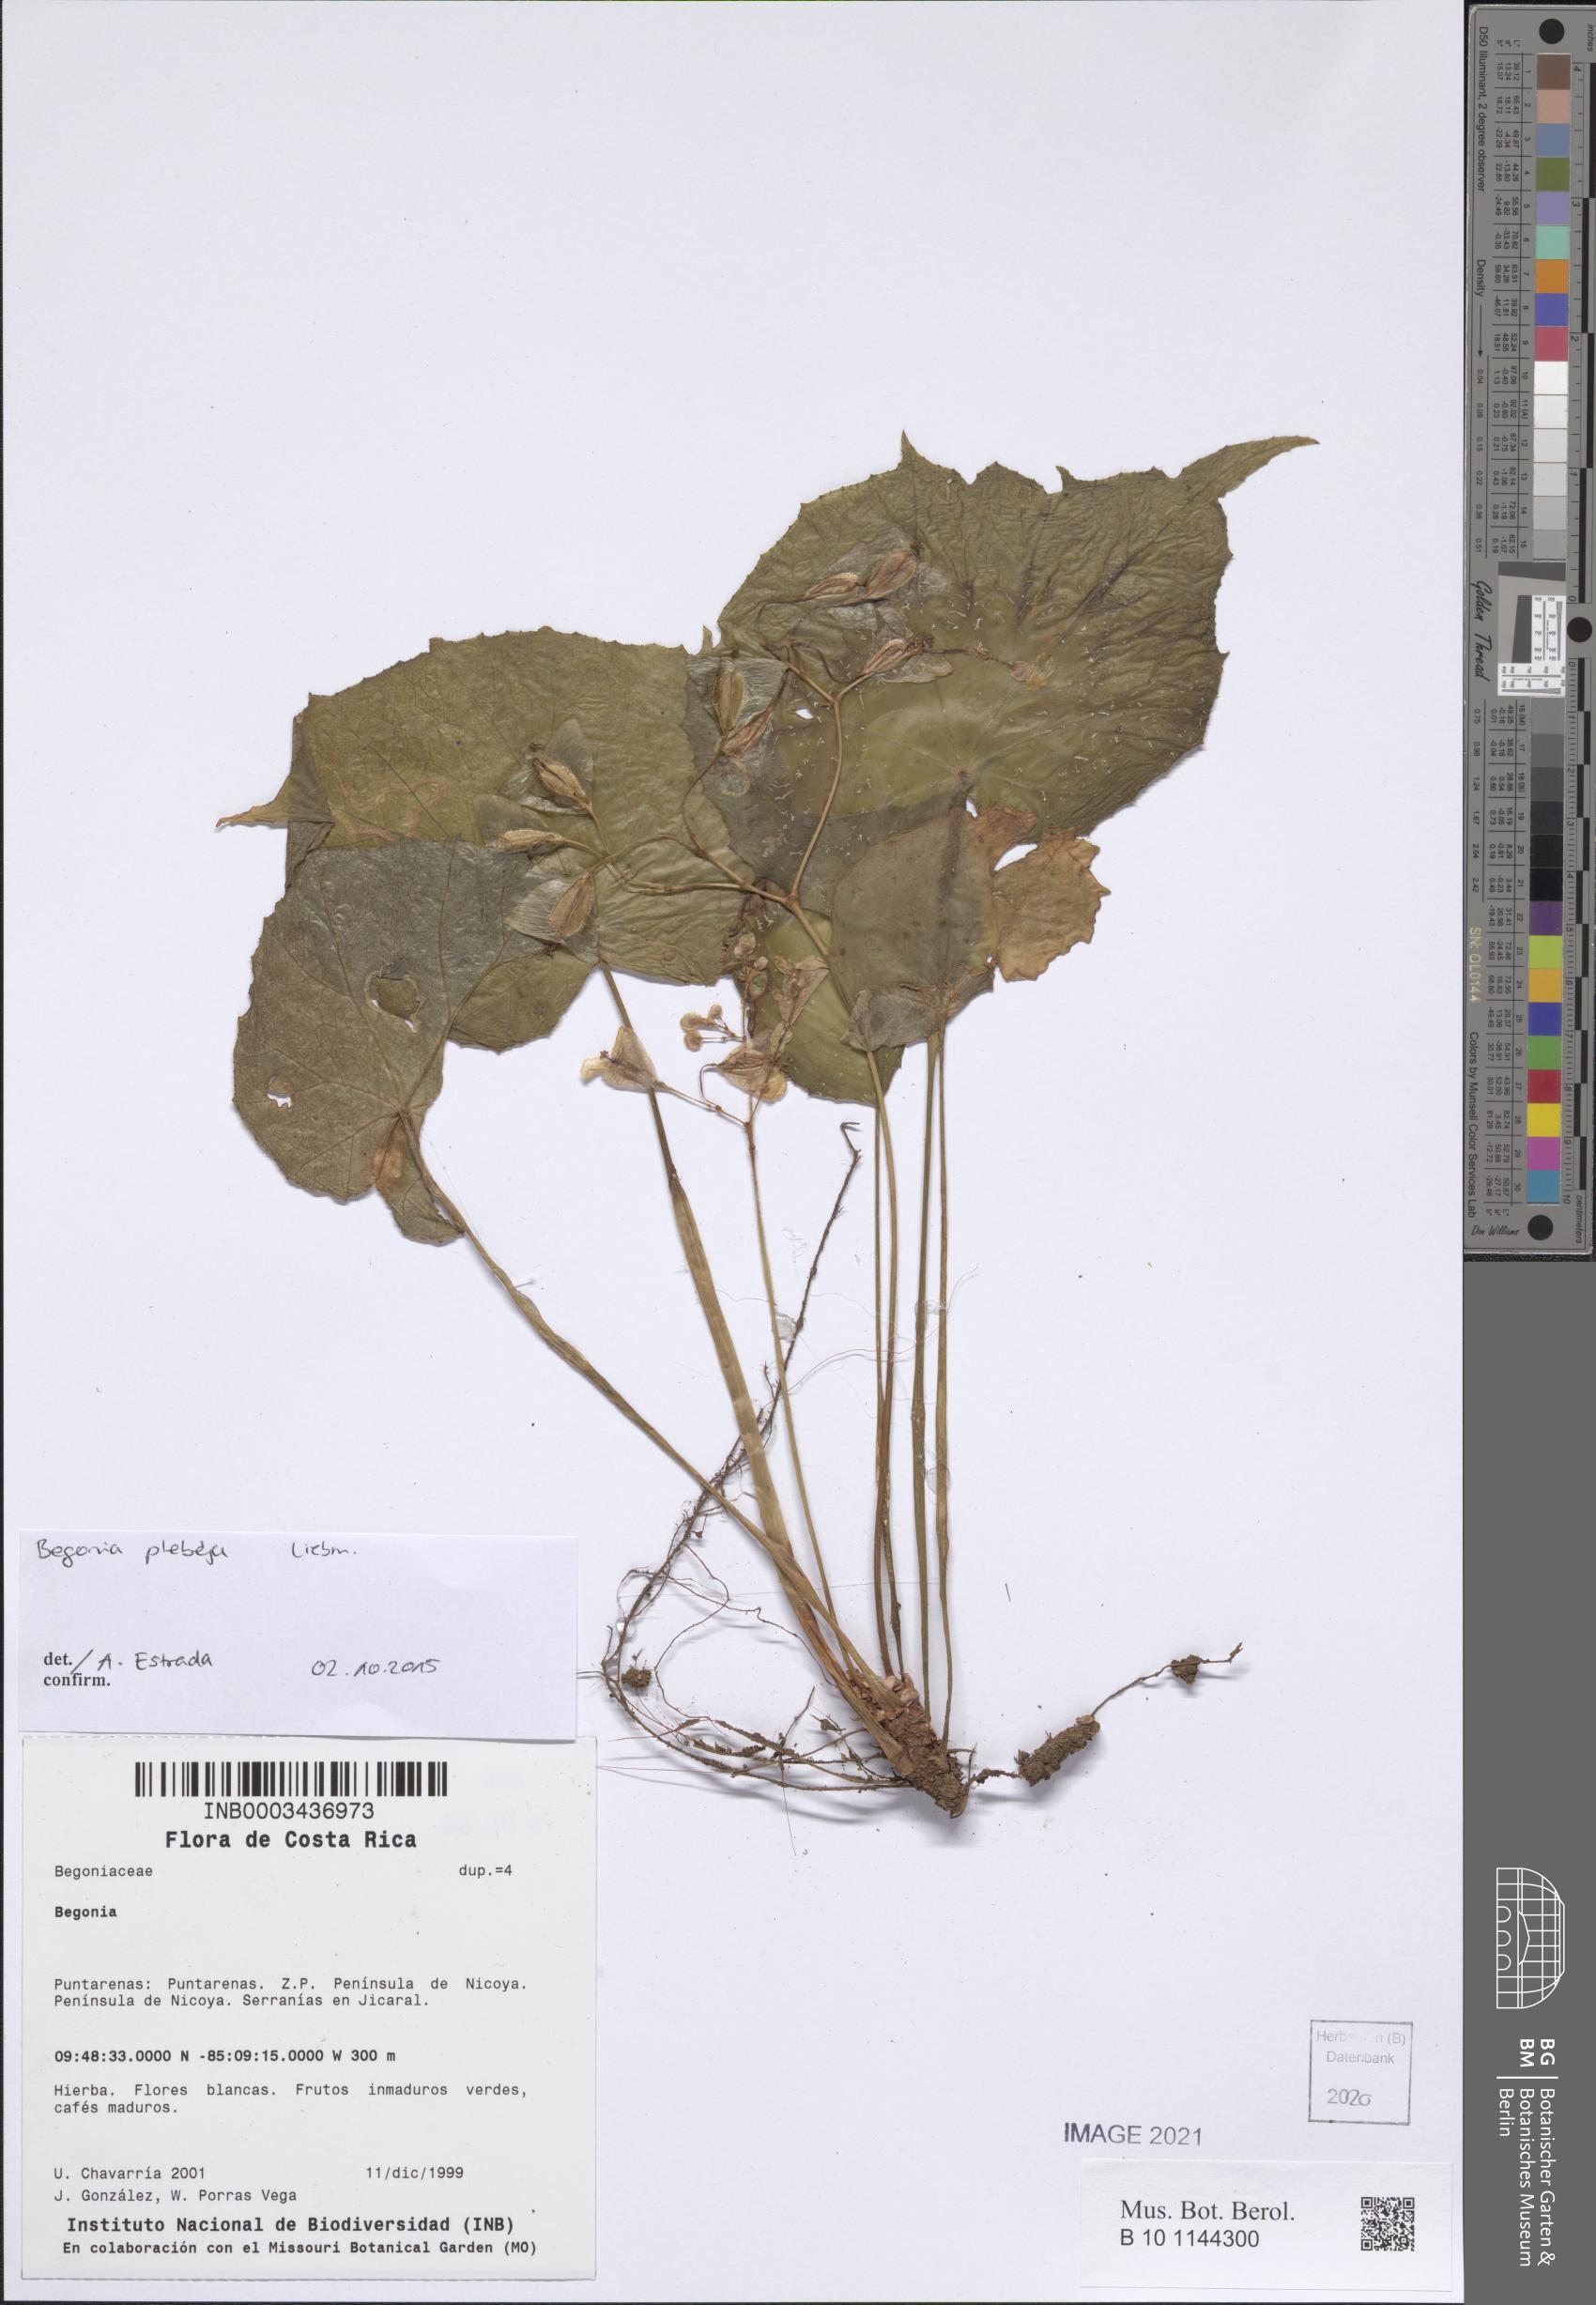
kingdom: Plantae
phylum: Tracheophyta
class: Magnoliopsida
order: Cucurbitales
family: Begoniaceae
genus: Begonia
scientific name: Begonia
